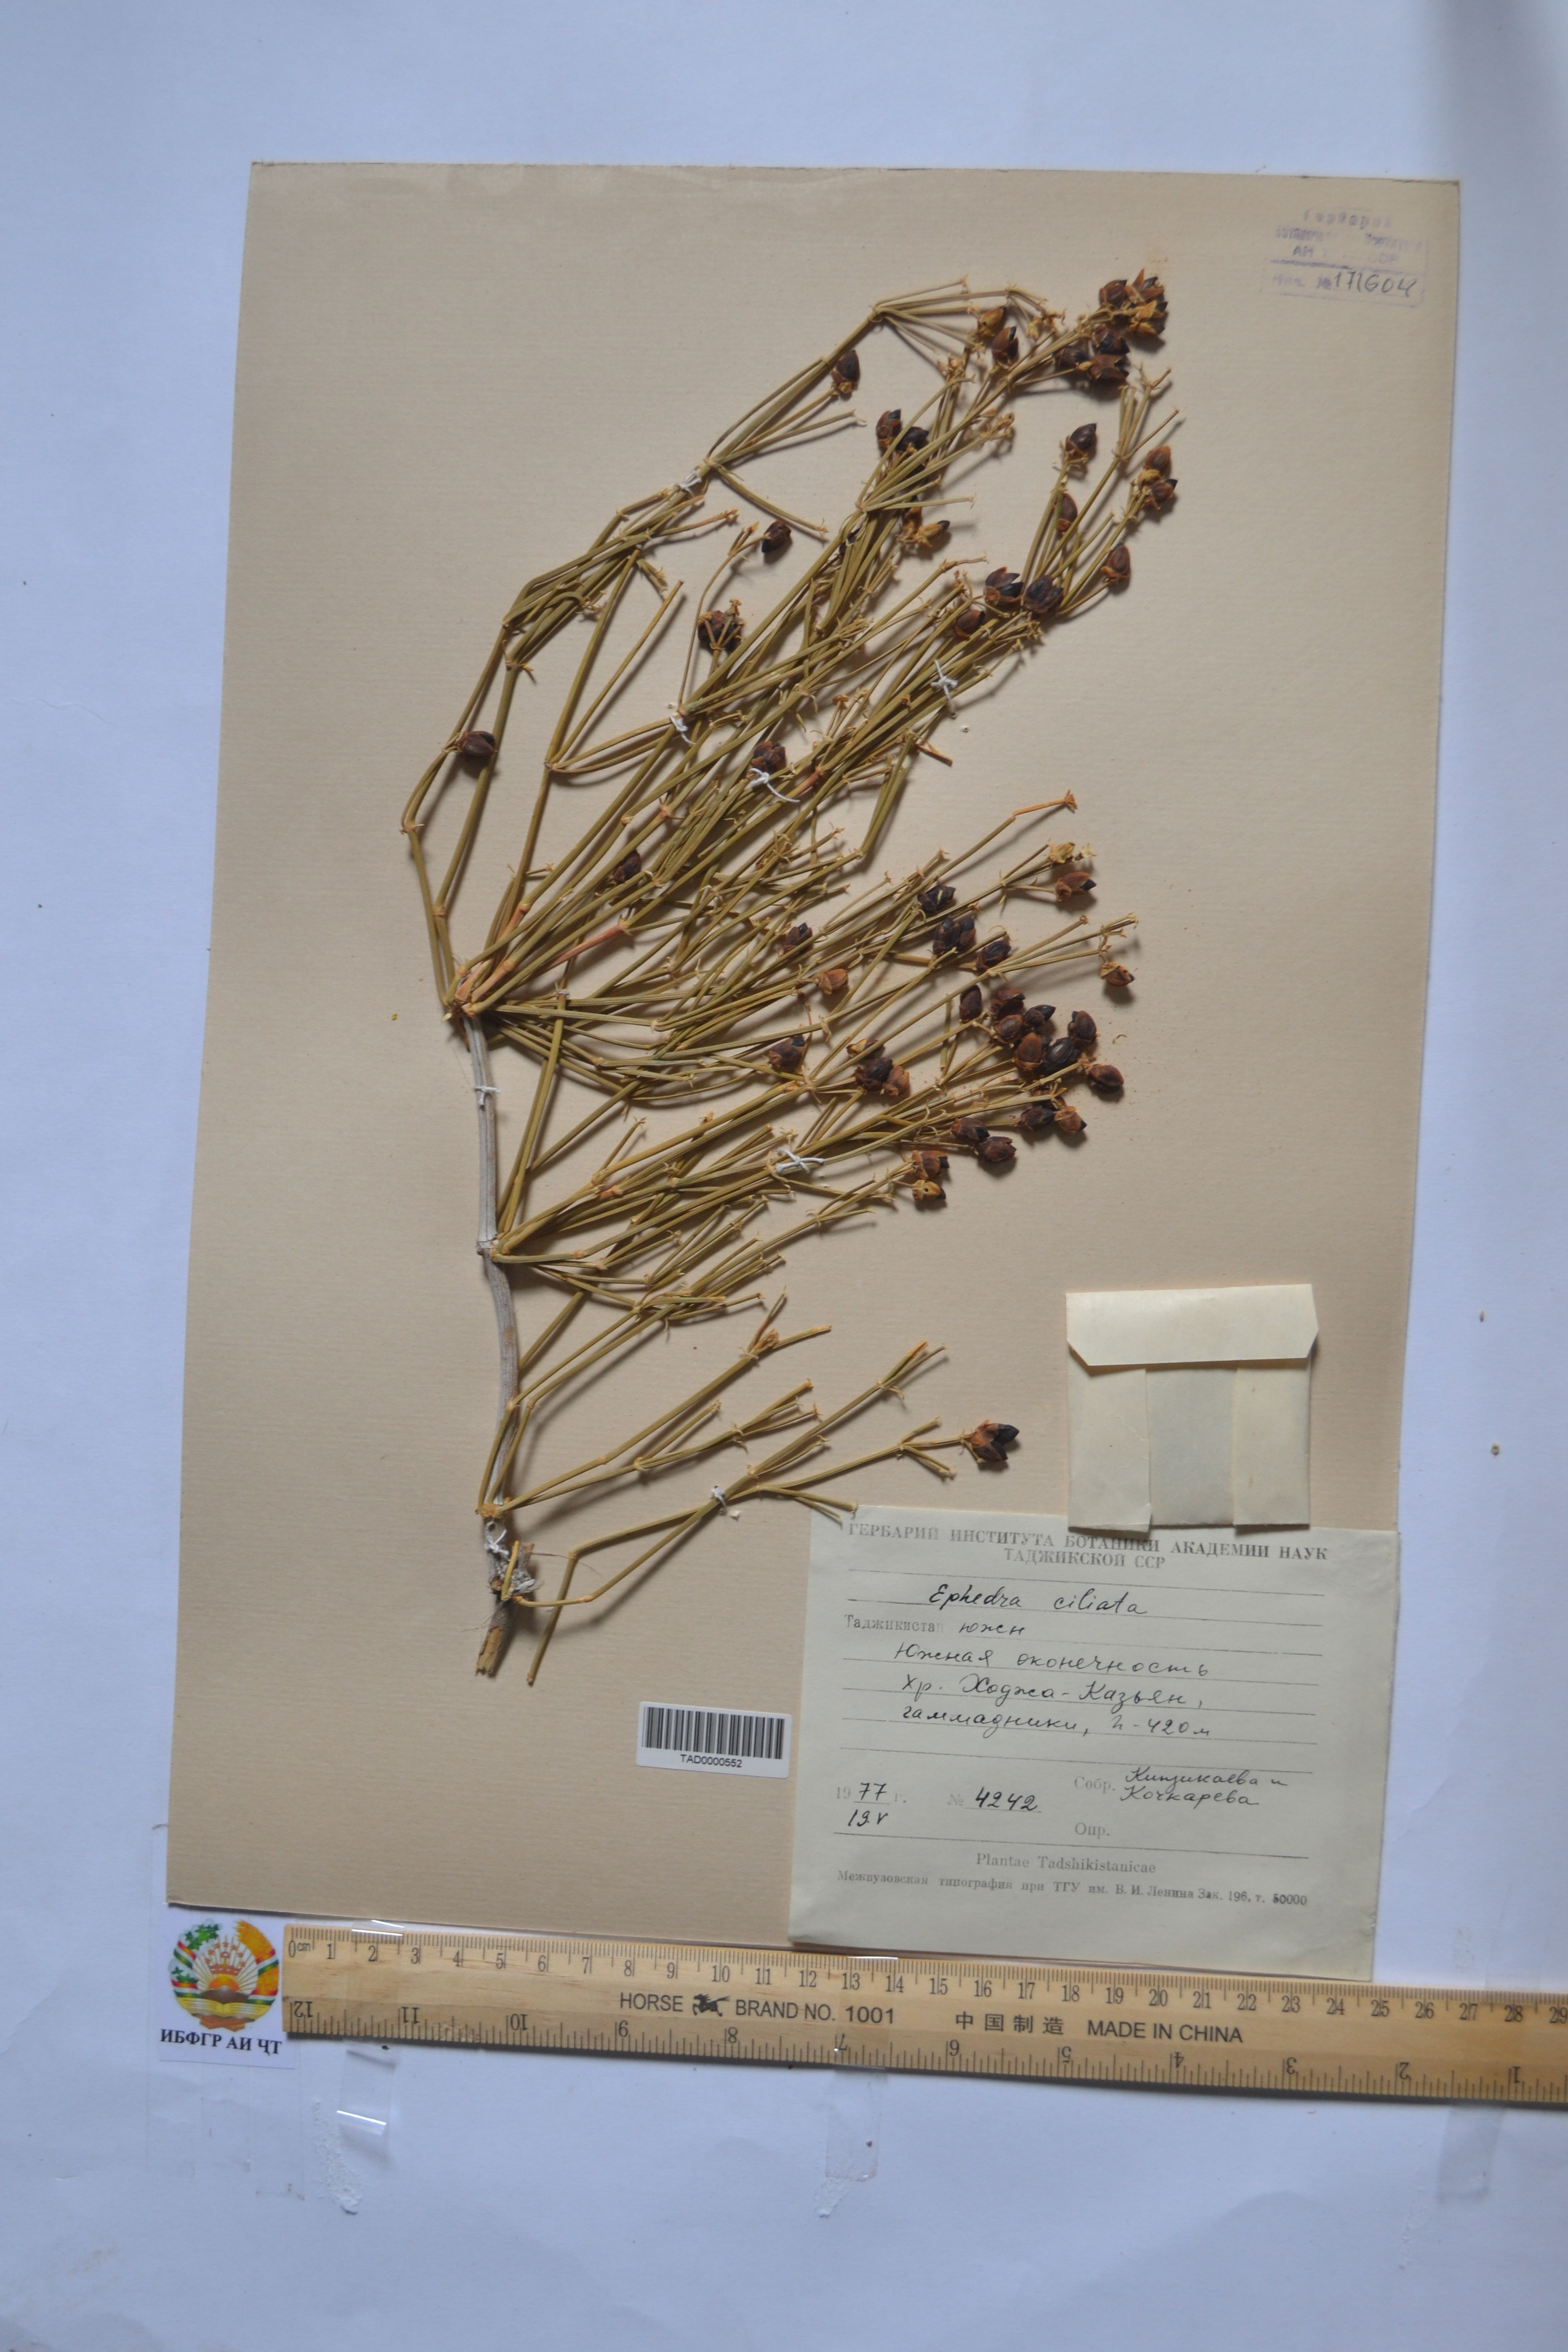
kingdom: Plantae
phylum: Tracheophyta
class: Gnetopsida
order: Ephedrales
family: Ephedraceae
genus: Ephedra
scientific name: Ephedra ciliata
